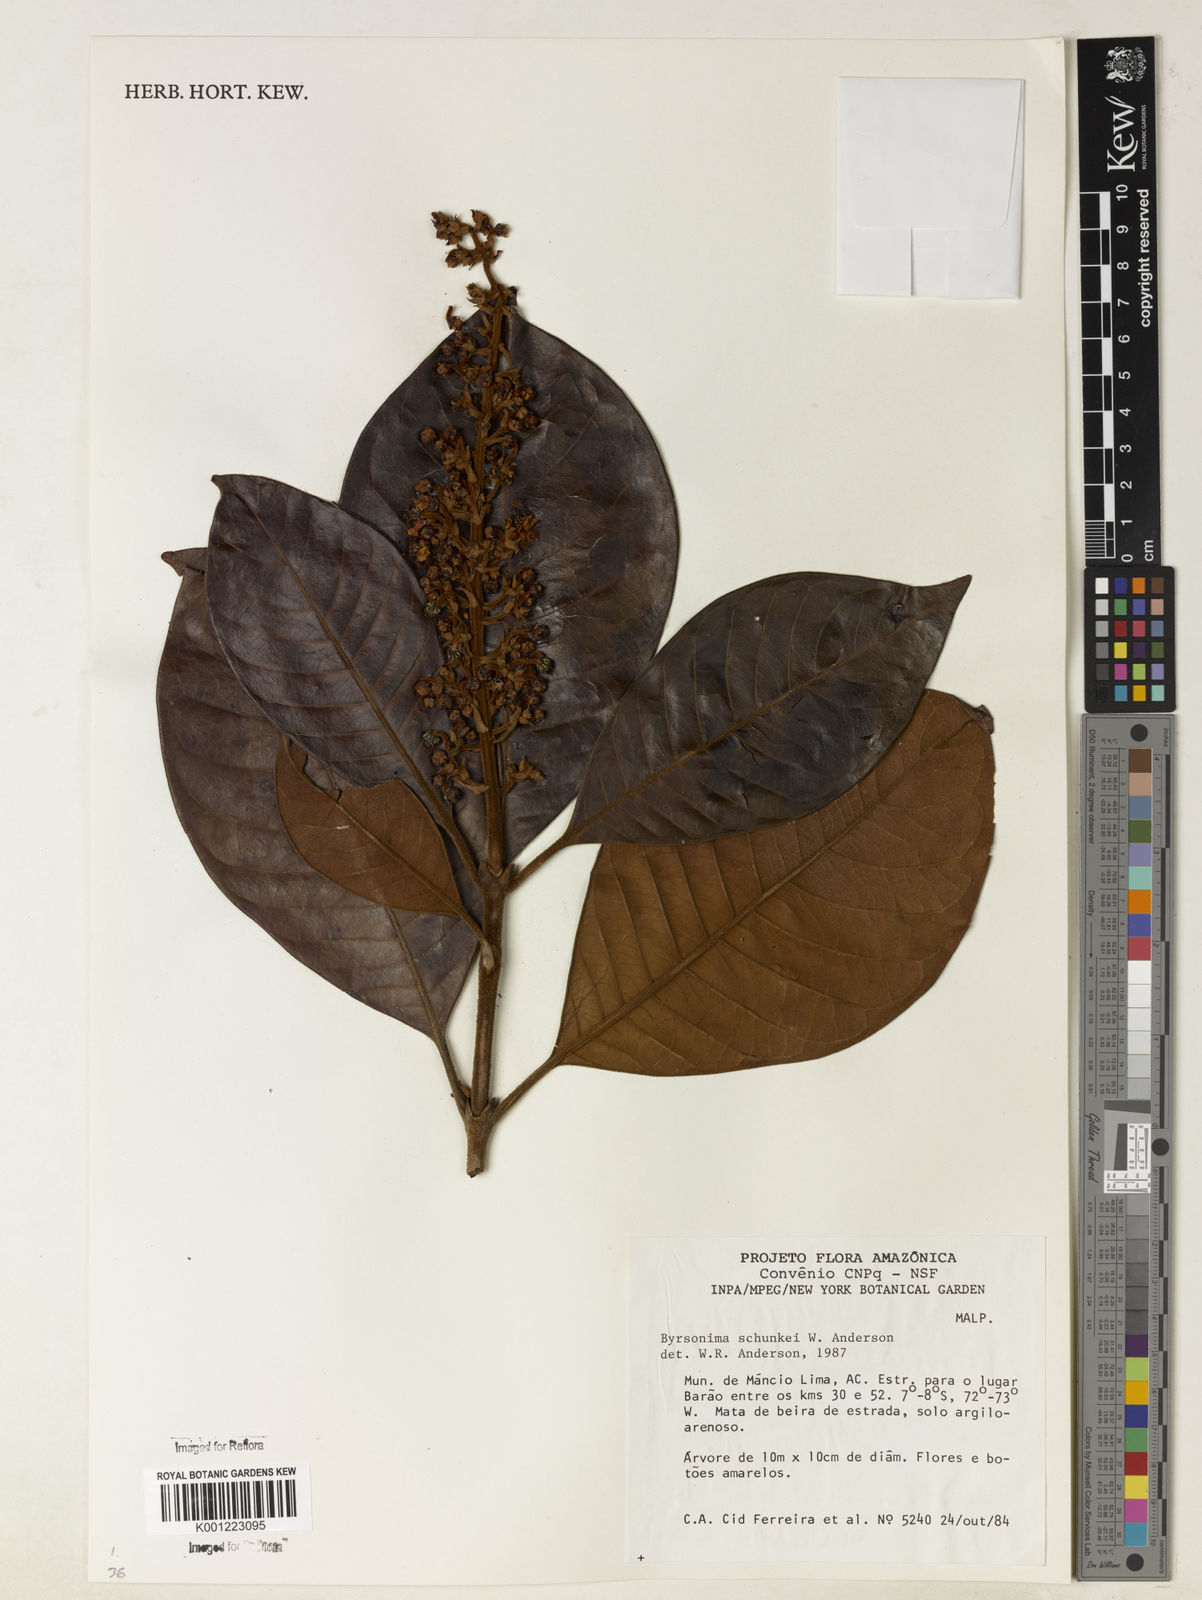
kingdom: Plantae
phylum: Tracheophyta
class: Magnoliopsida
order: Malpighiales
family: Malpighiaceae
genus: Byrsonima
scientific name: Byrsonima schunkei
